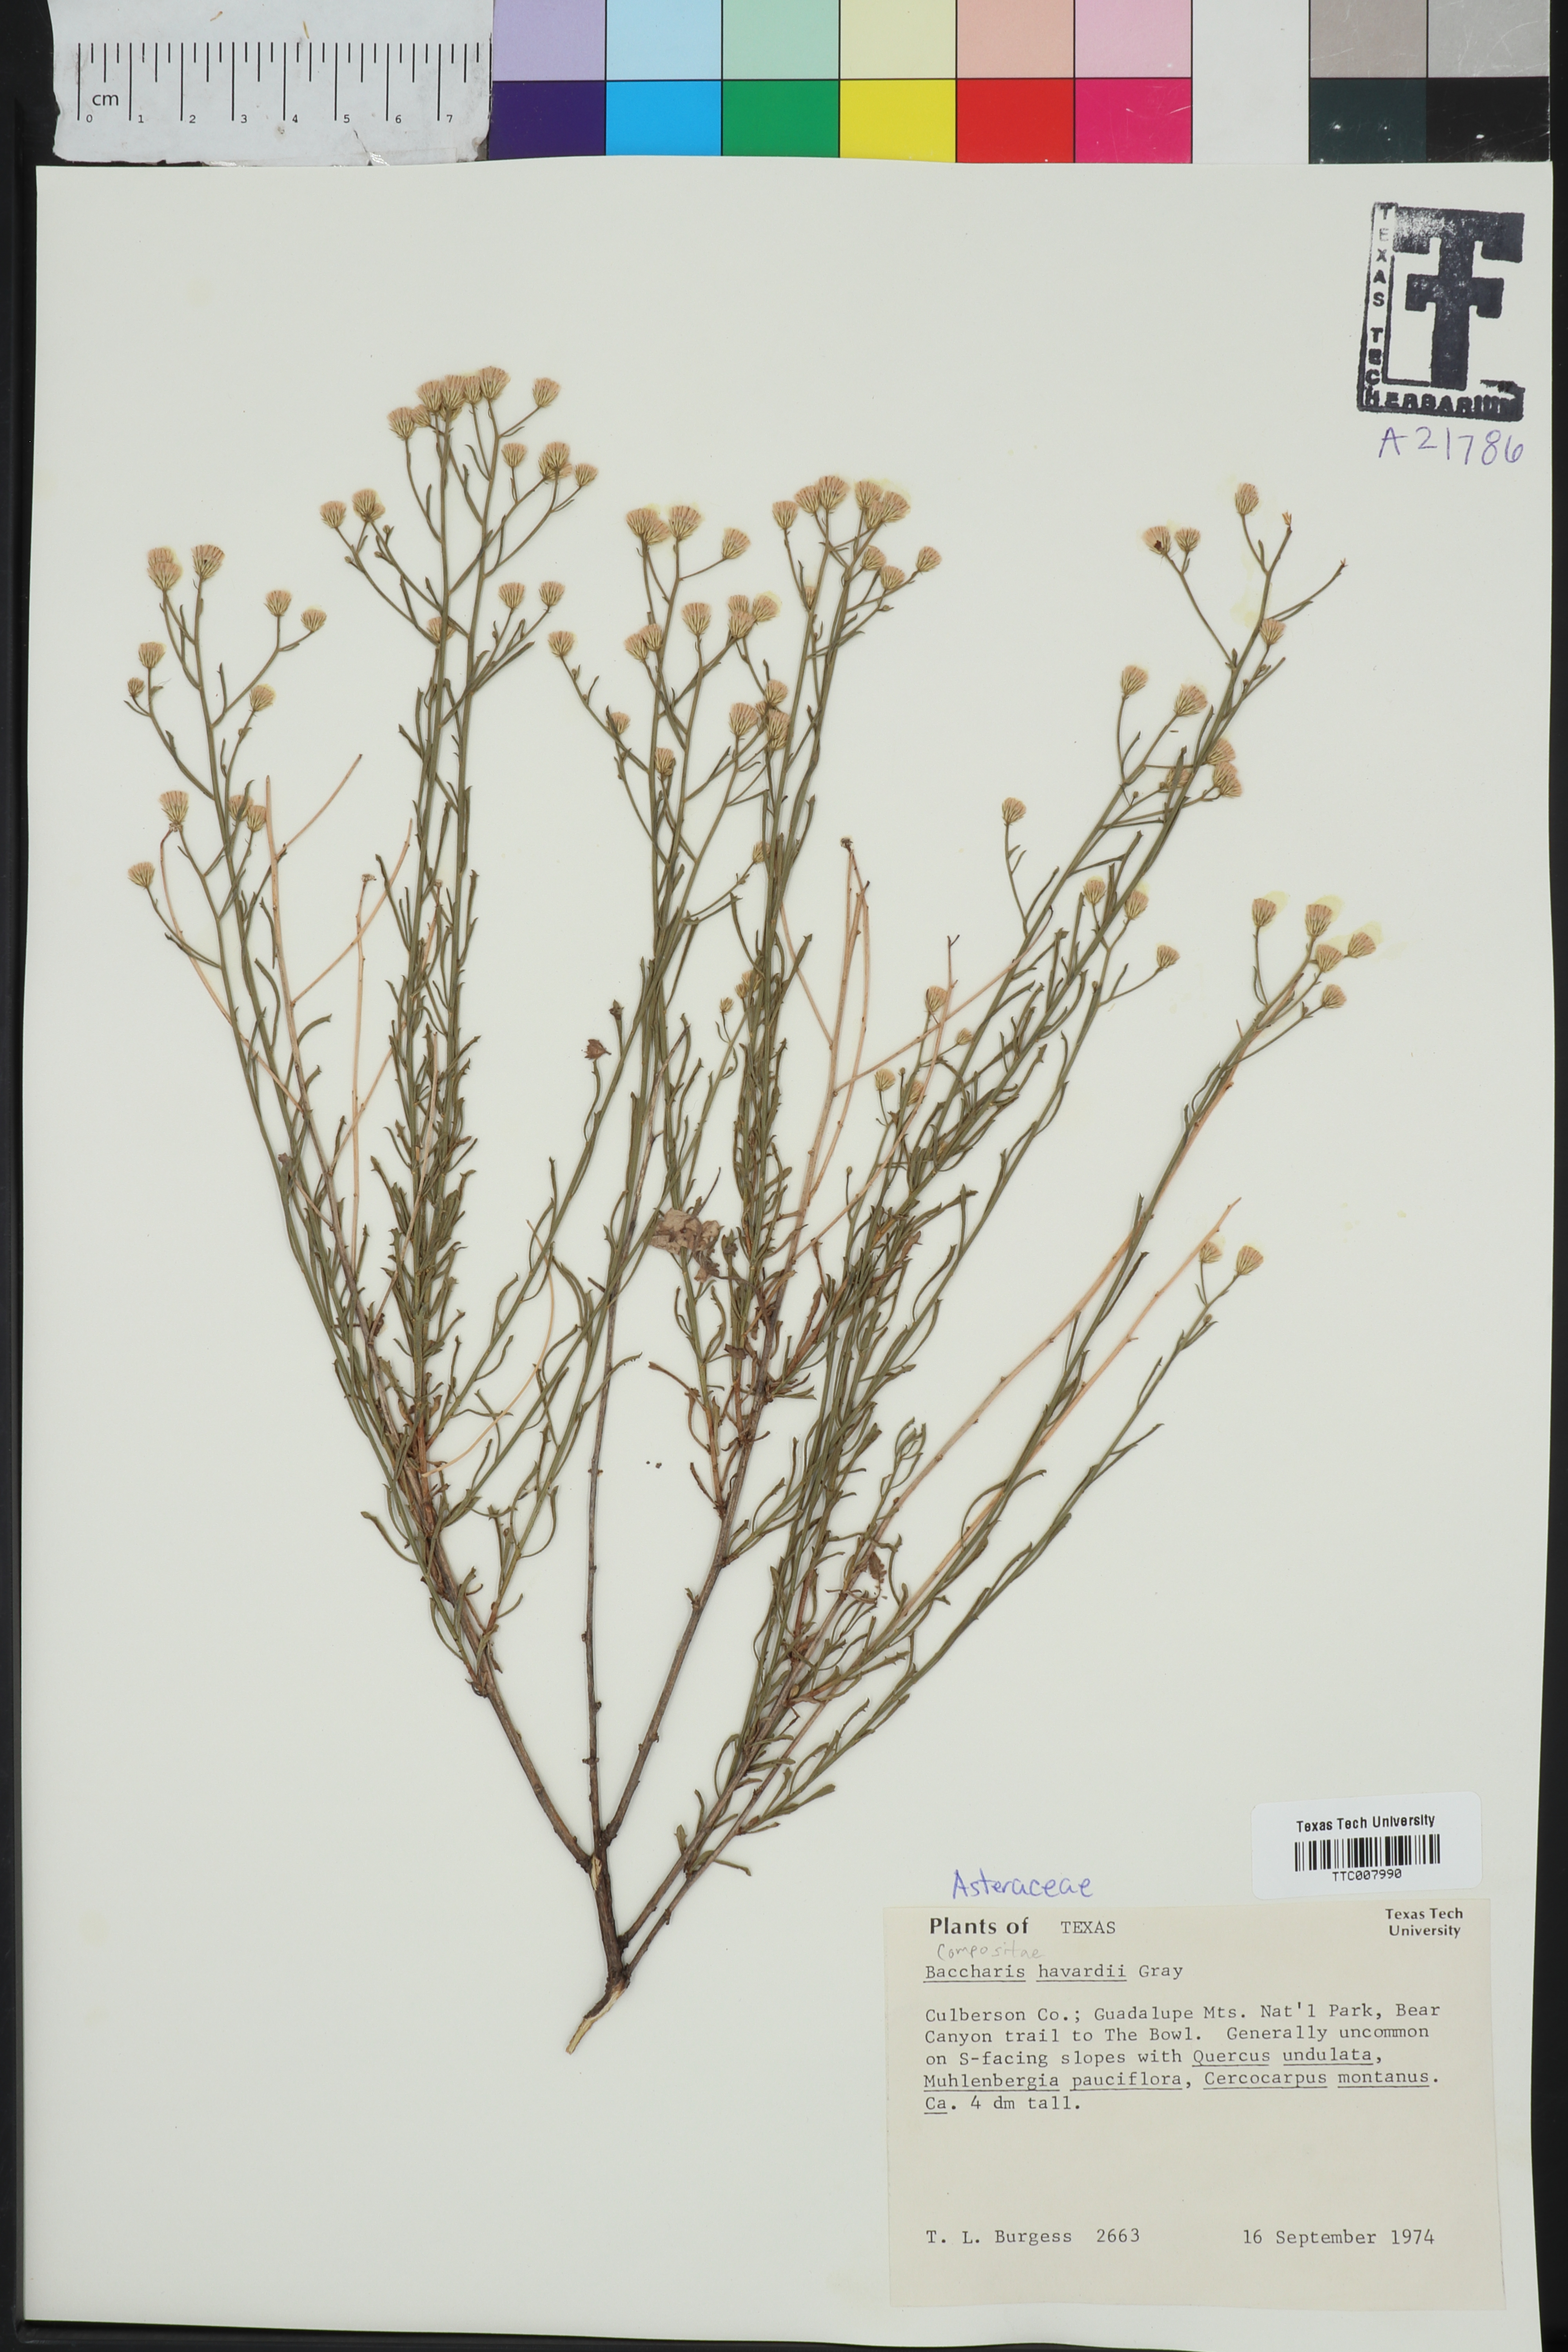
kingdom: Plantae
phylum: Tracheophyta
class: Magnoliopsida
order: Asterales
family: Asteraceae
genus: Baccharis
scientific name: Baccharis havardii
